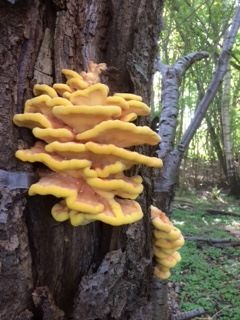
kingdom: Fungi
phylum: Basidiomycota
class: Agaricomycetes
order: Polyporales
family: Laetiporaceae
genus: Laetiporus
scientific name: Laetiporus sulphureus
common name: svovlporesvamp
